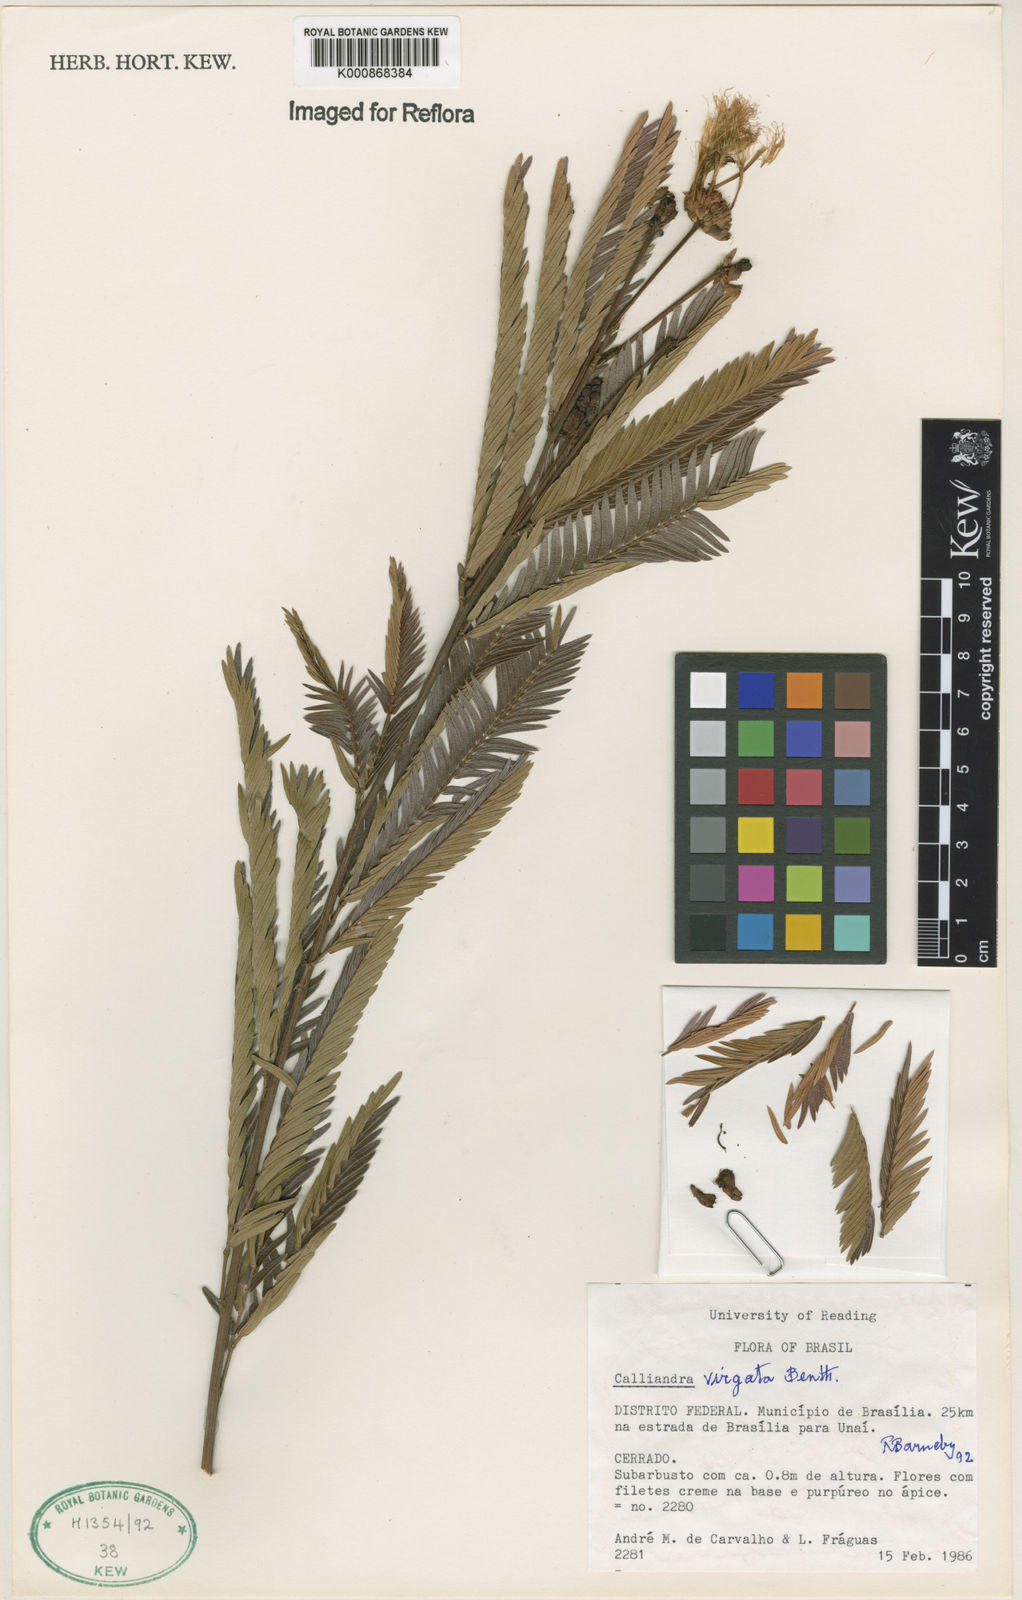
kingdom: Plantae
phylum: Tracheophyta
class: Magnoliopsida
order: Fabales
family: Fabaceae
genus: Calliandra
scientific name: Calliandra virgata
